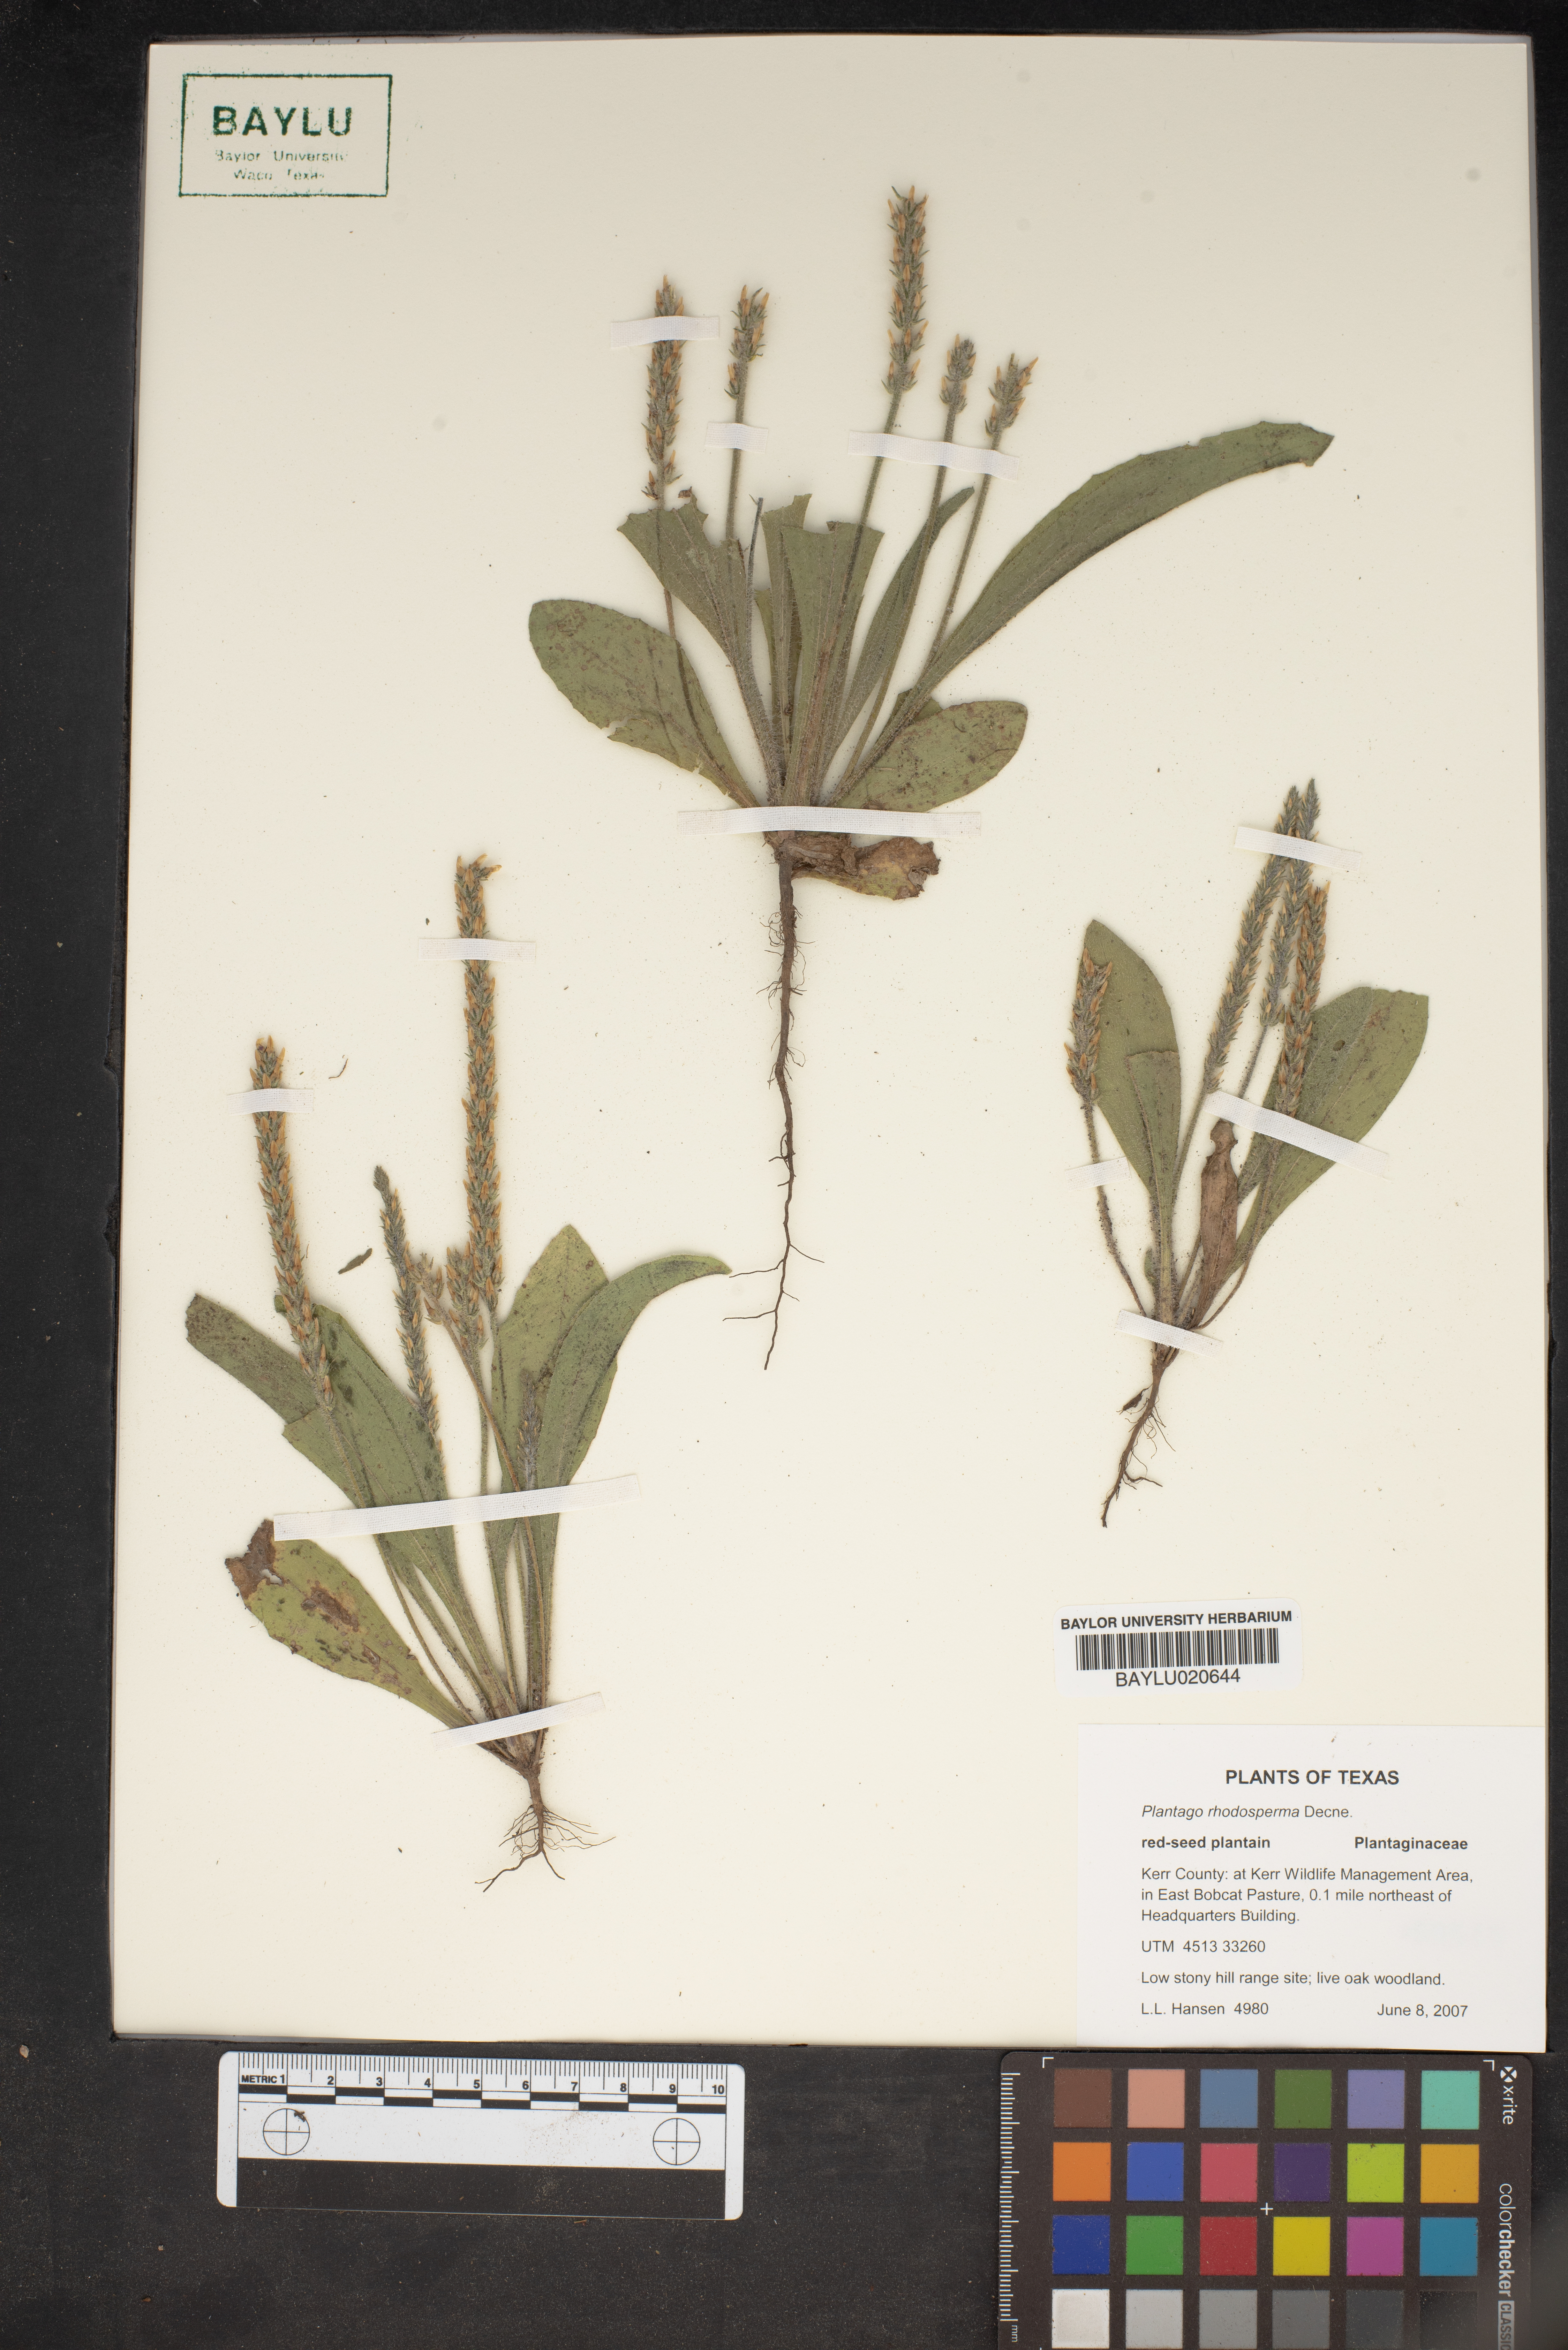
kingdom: Plantae
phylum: Tracheophyta
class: Magnoliopsida
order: Lamiales
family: Plantaginaceae
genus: Plantago
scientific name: Plantago rhodosperma
